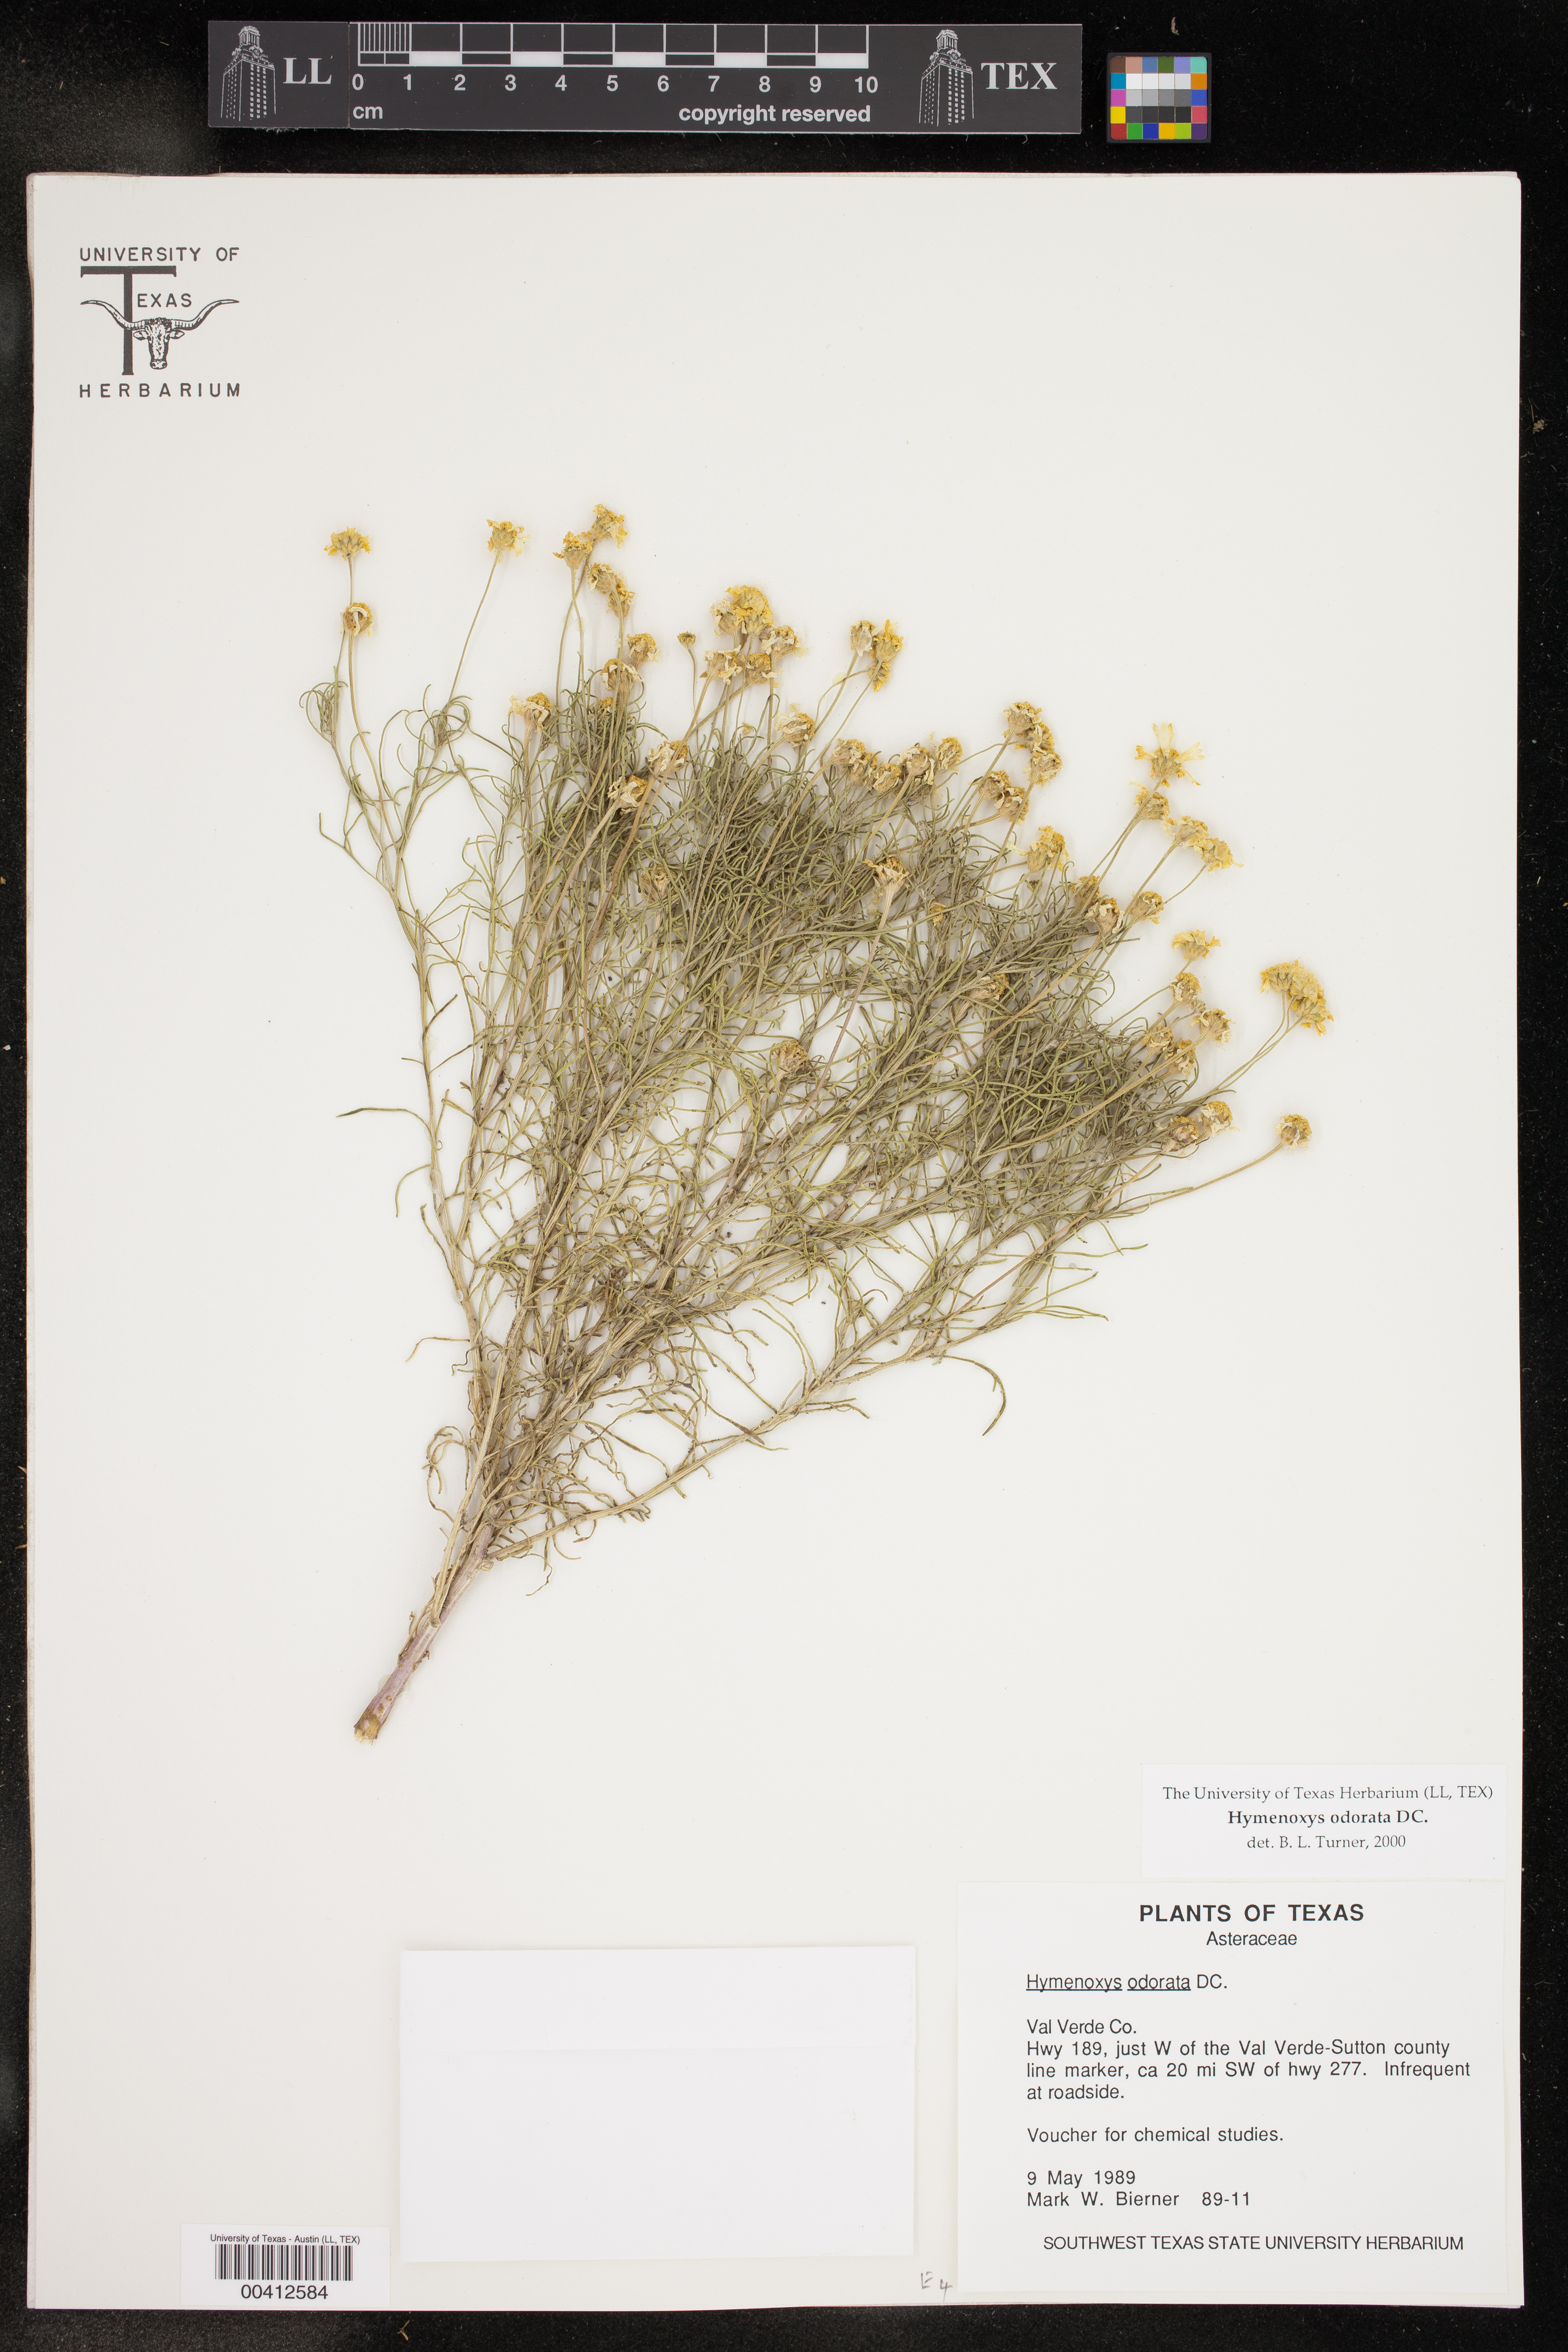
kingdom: Plantae
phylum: Tracheophyta
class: Magnoliopsida
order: Asterales
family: Asteraceae
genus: Hymenoxys
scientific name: Hymenoxys odorata
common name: Bitter rubberweed
